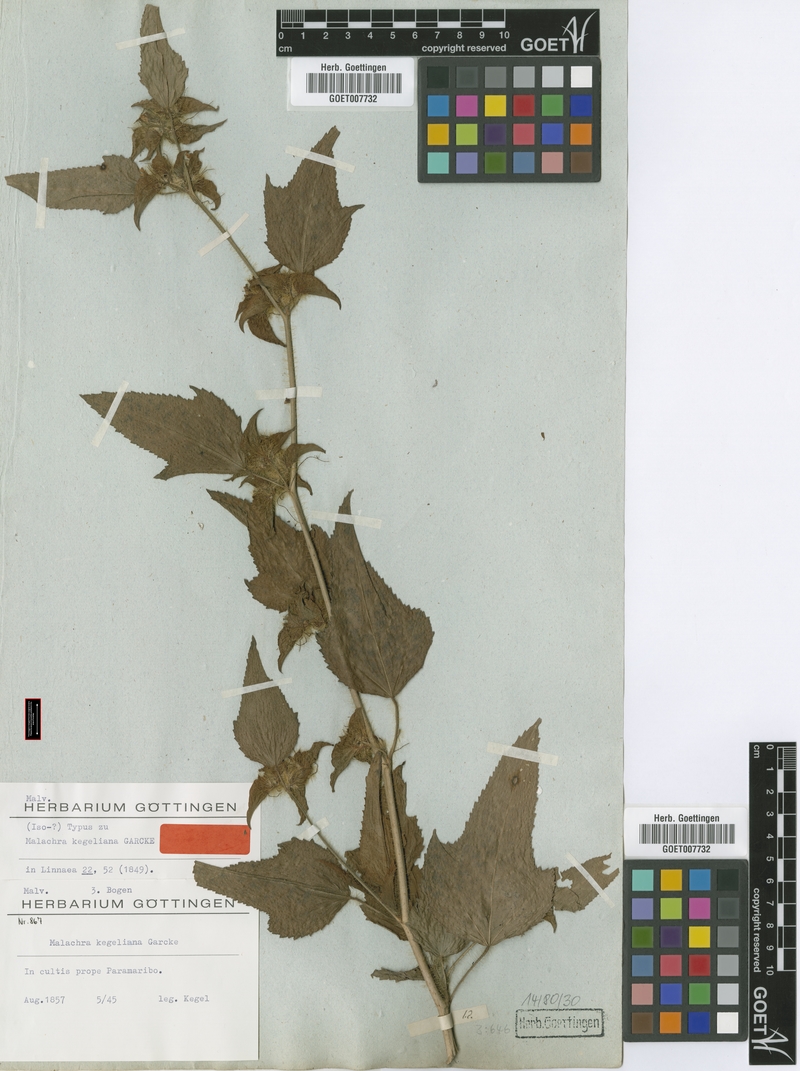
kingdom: Plantae
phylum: Tracheophyta
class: Magnoliopsida
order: Malvales
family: Malvaceae
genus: Malachra
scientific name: Malachra fasciata
